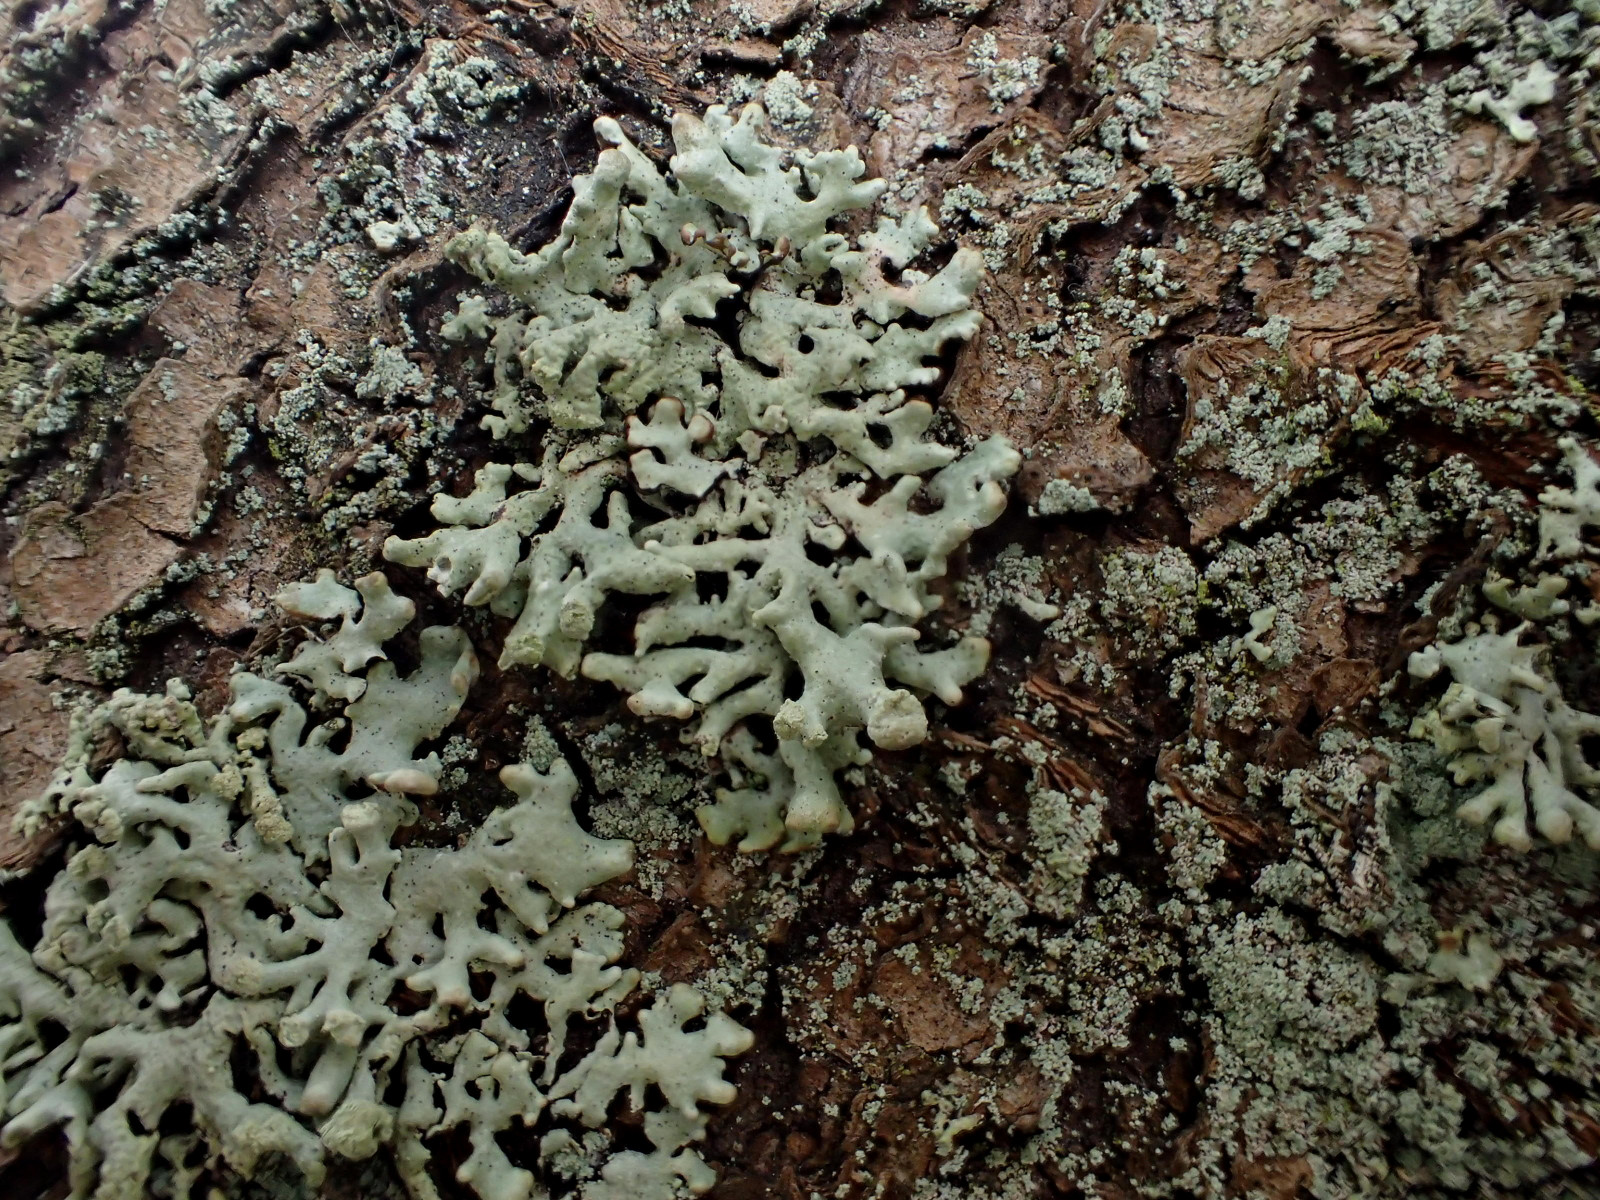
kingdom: Fungi
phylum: Ascomycota
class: Lecanoromycetes
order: Lecanorales
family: Parmeliaceae
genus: Hypogymnia
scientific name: Hypogymnia tubulosa
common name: finger-kvistlav
